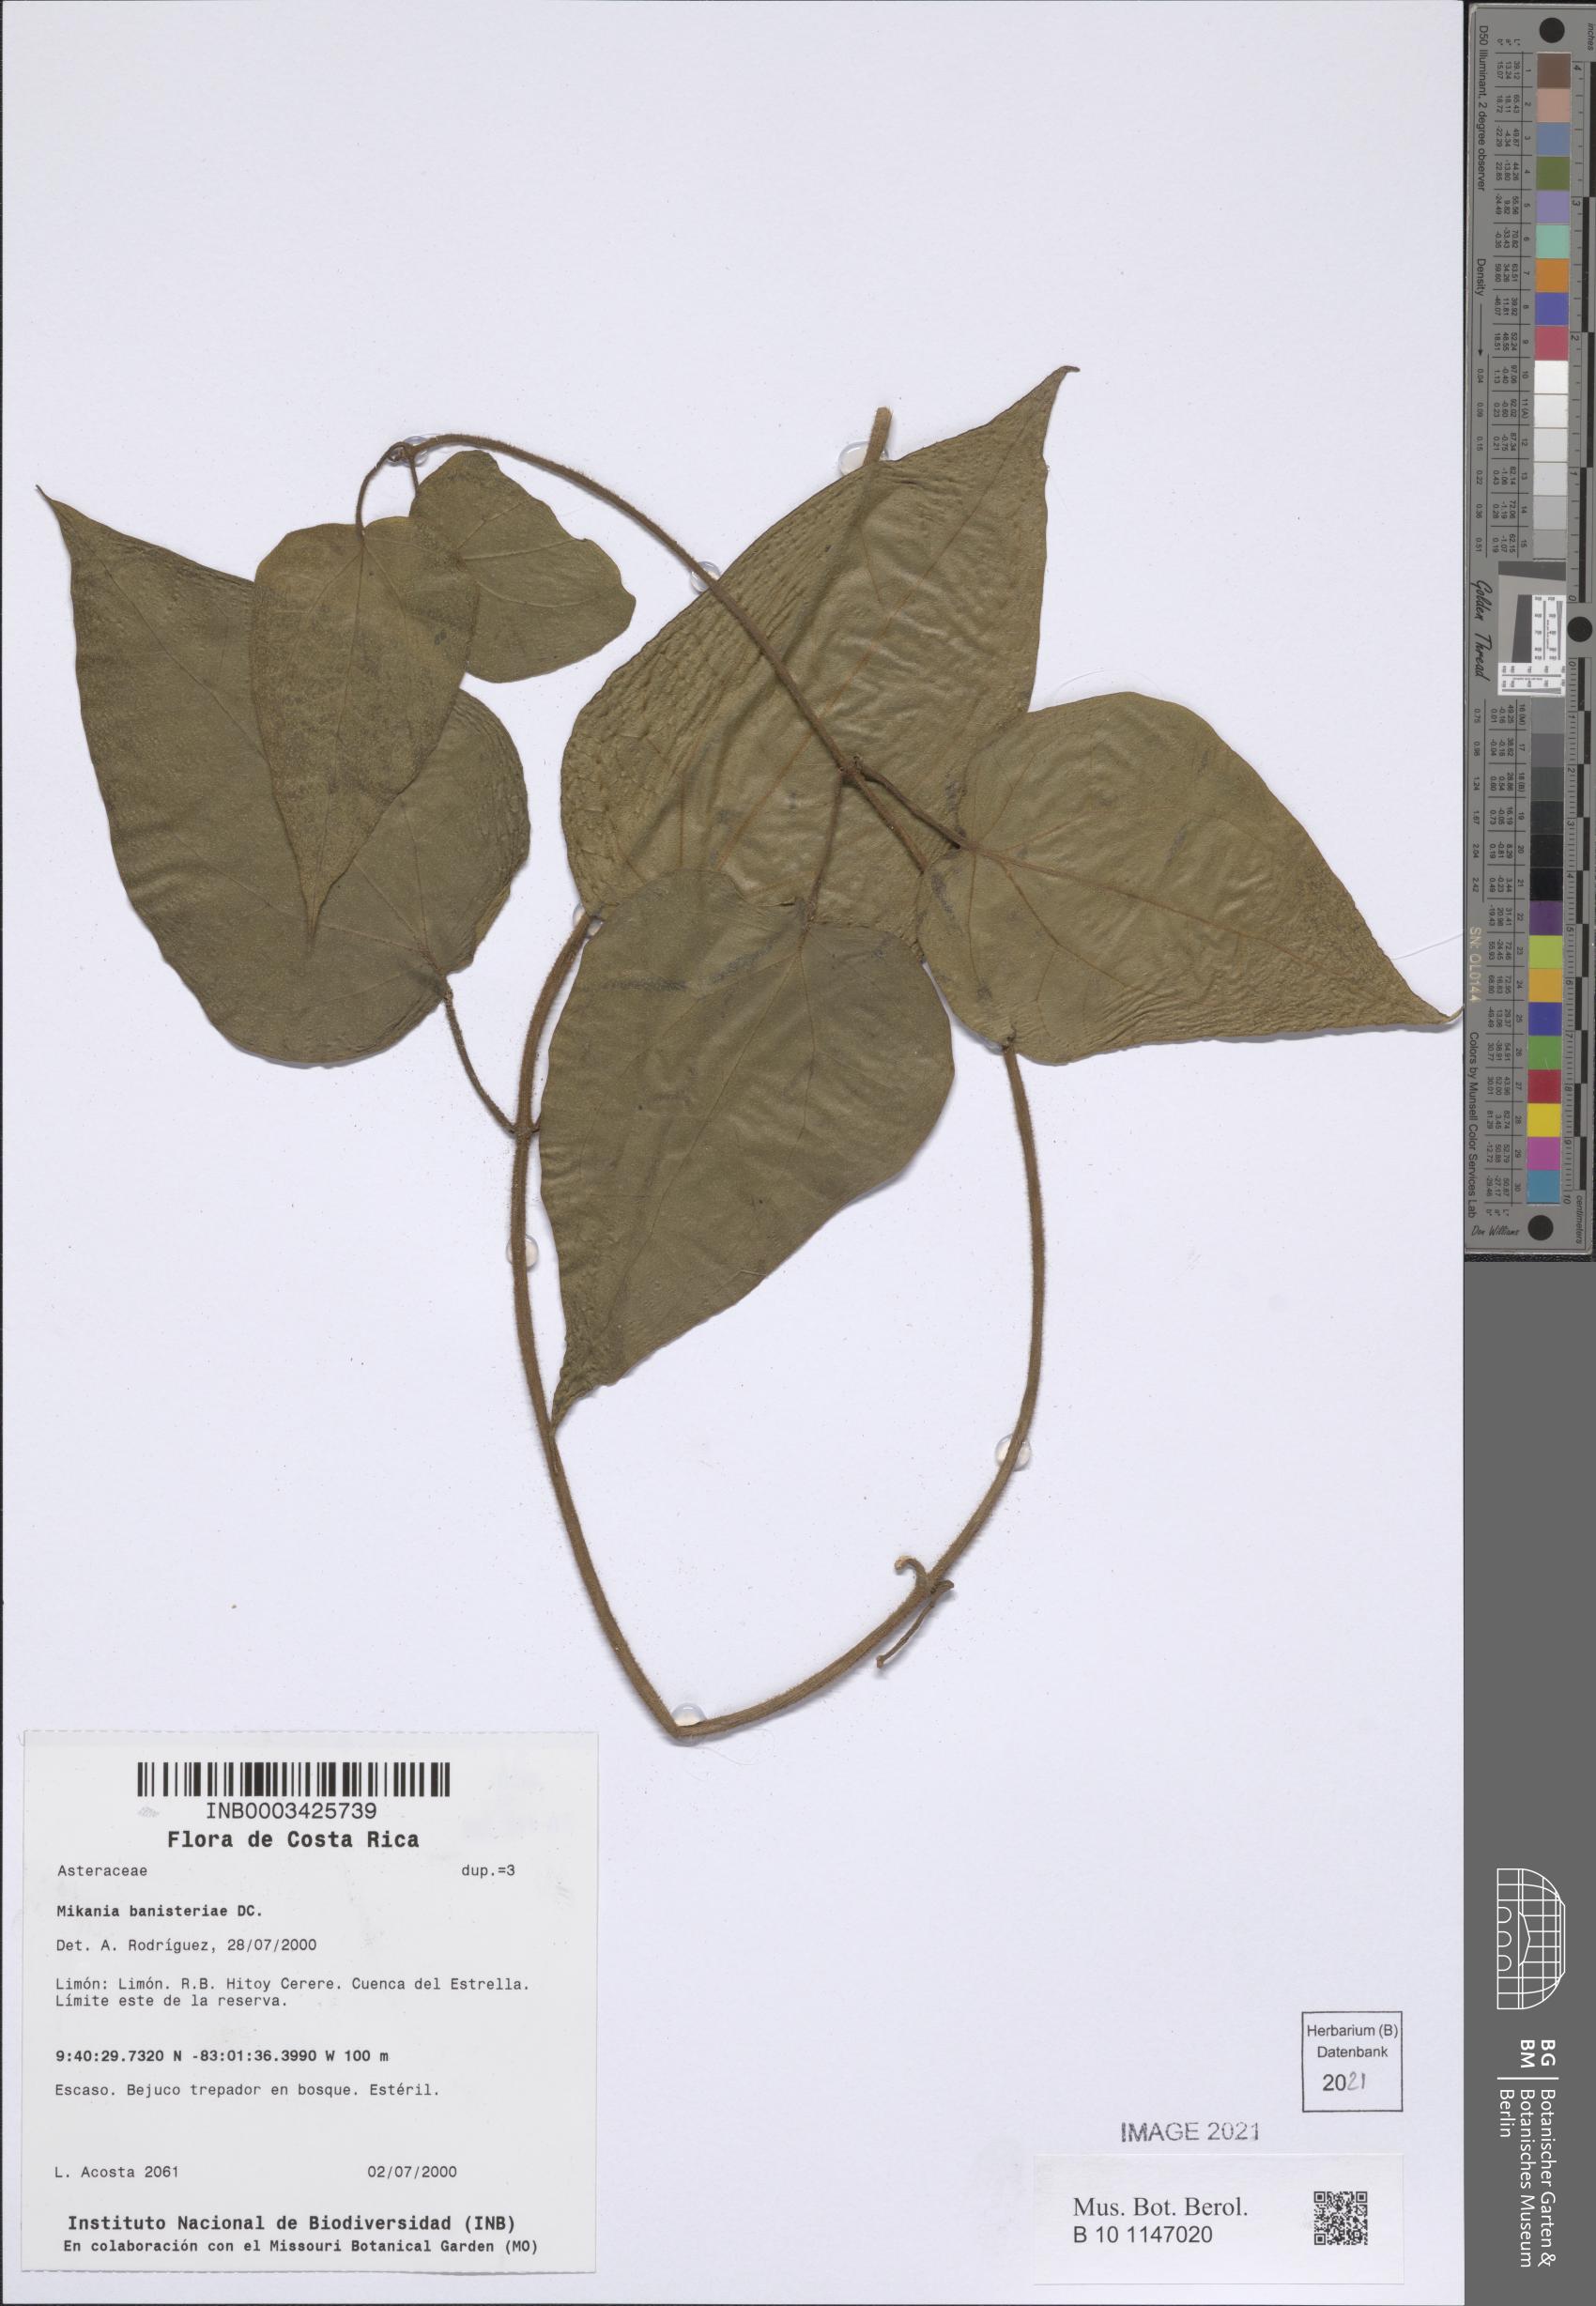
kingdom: Plantae
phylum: Tracheophyta
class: Magnoliopsida
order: Asterales
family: Asteraceae
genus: Mikania
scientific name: Mikania banisteriae
